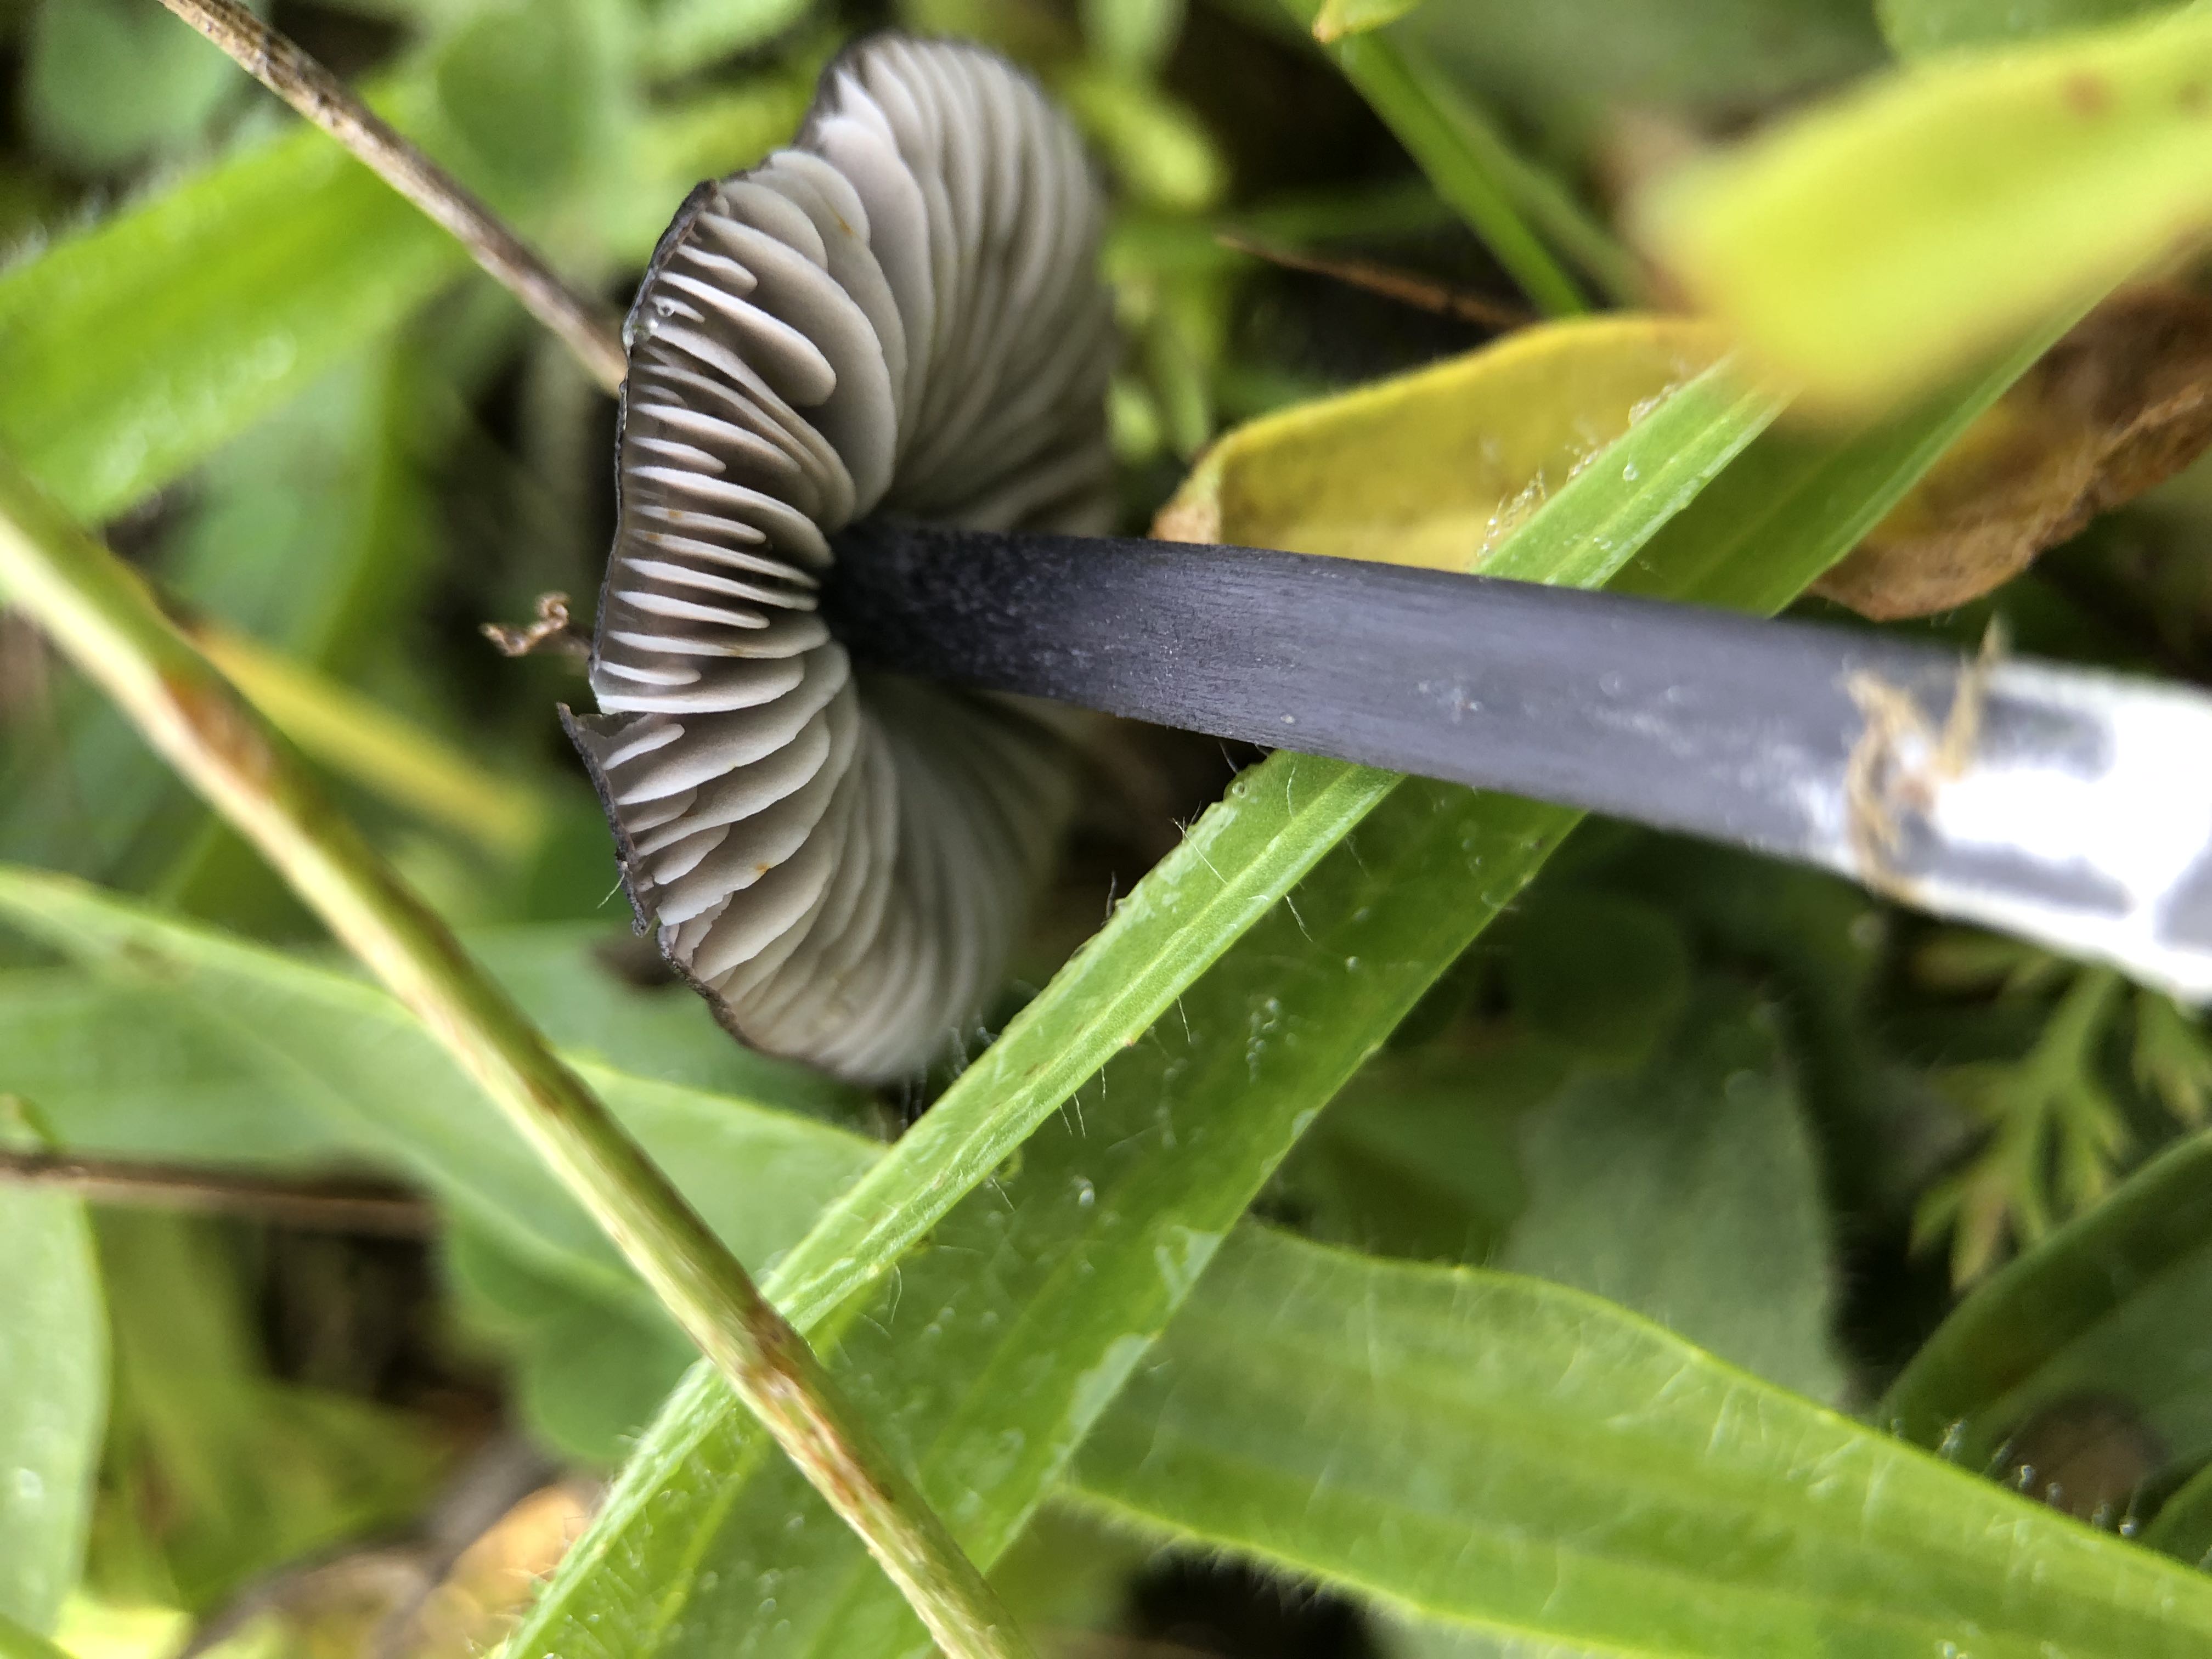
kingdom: Fungi
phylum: Basidiomycota
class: Agaricomycetes
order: Agaricales
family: Entolomataceae
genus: Entoloma
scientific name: Entoloma chalybeum
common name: blåbladet rødblad
